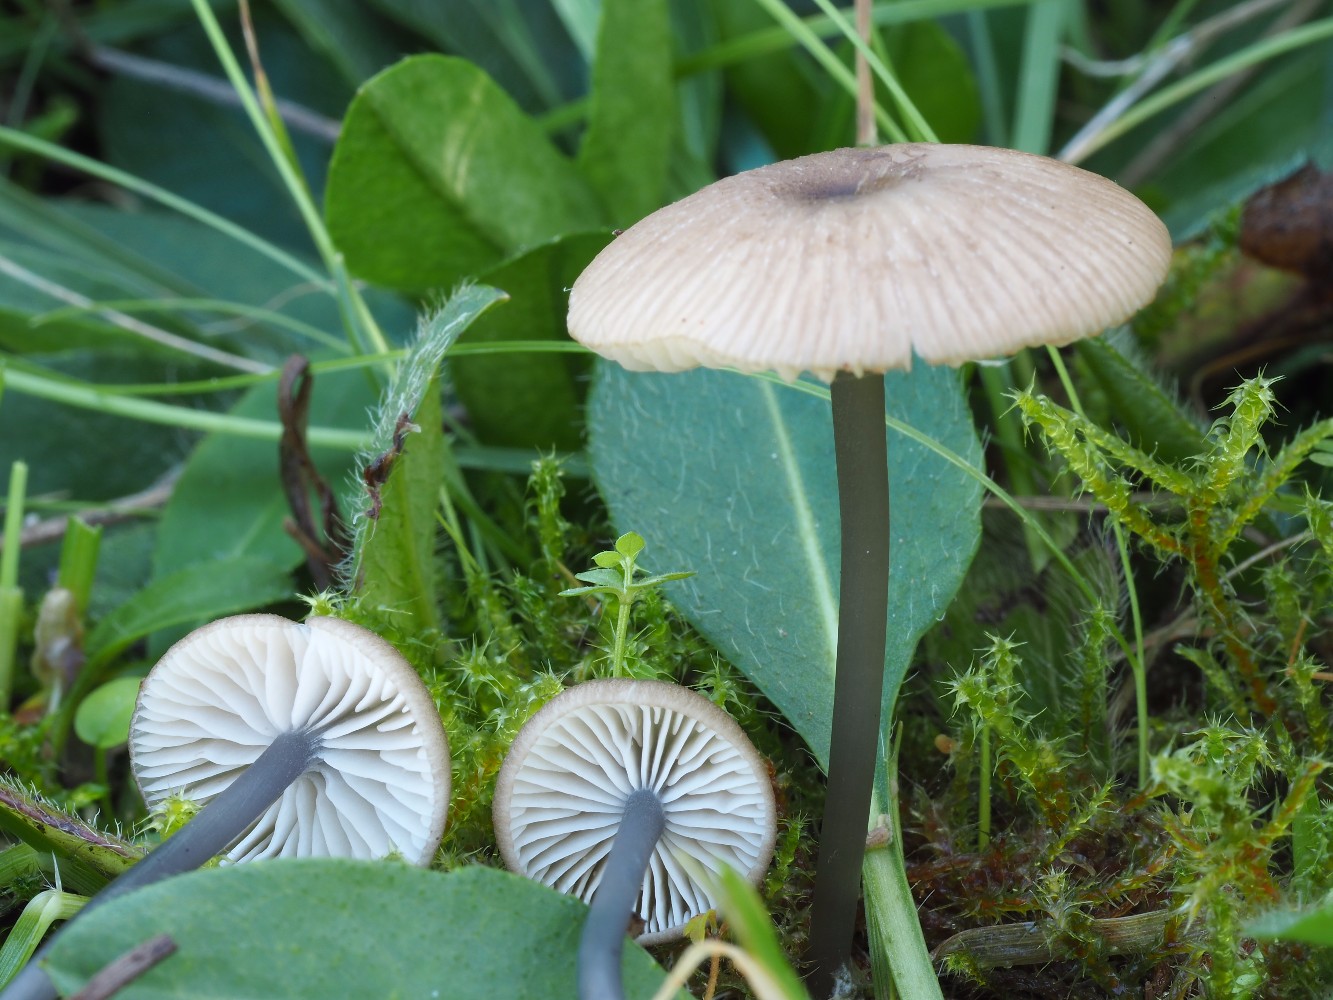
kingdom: Fungi
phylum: Basidiomycota
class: Agaricomycetes
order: Agaricales
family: Entolomataceae
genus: Entoloma
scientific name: Entoloma
